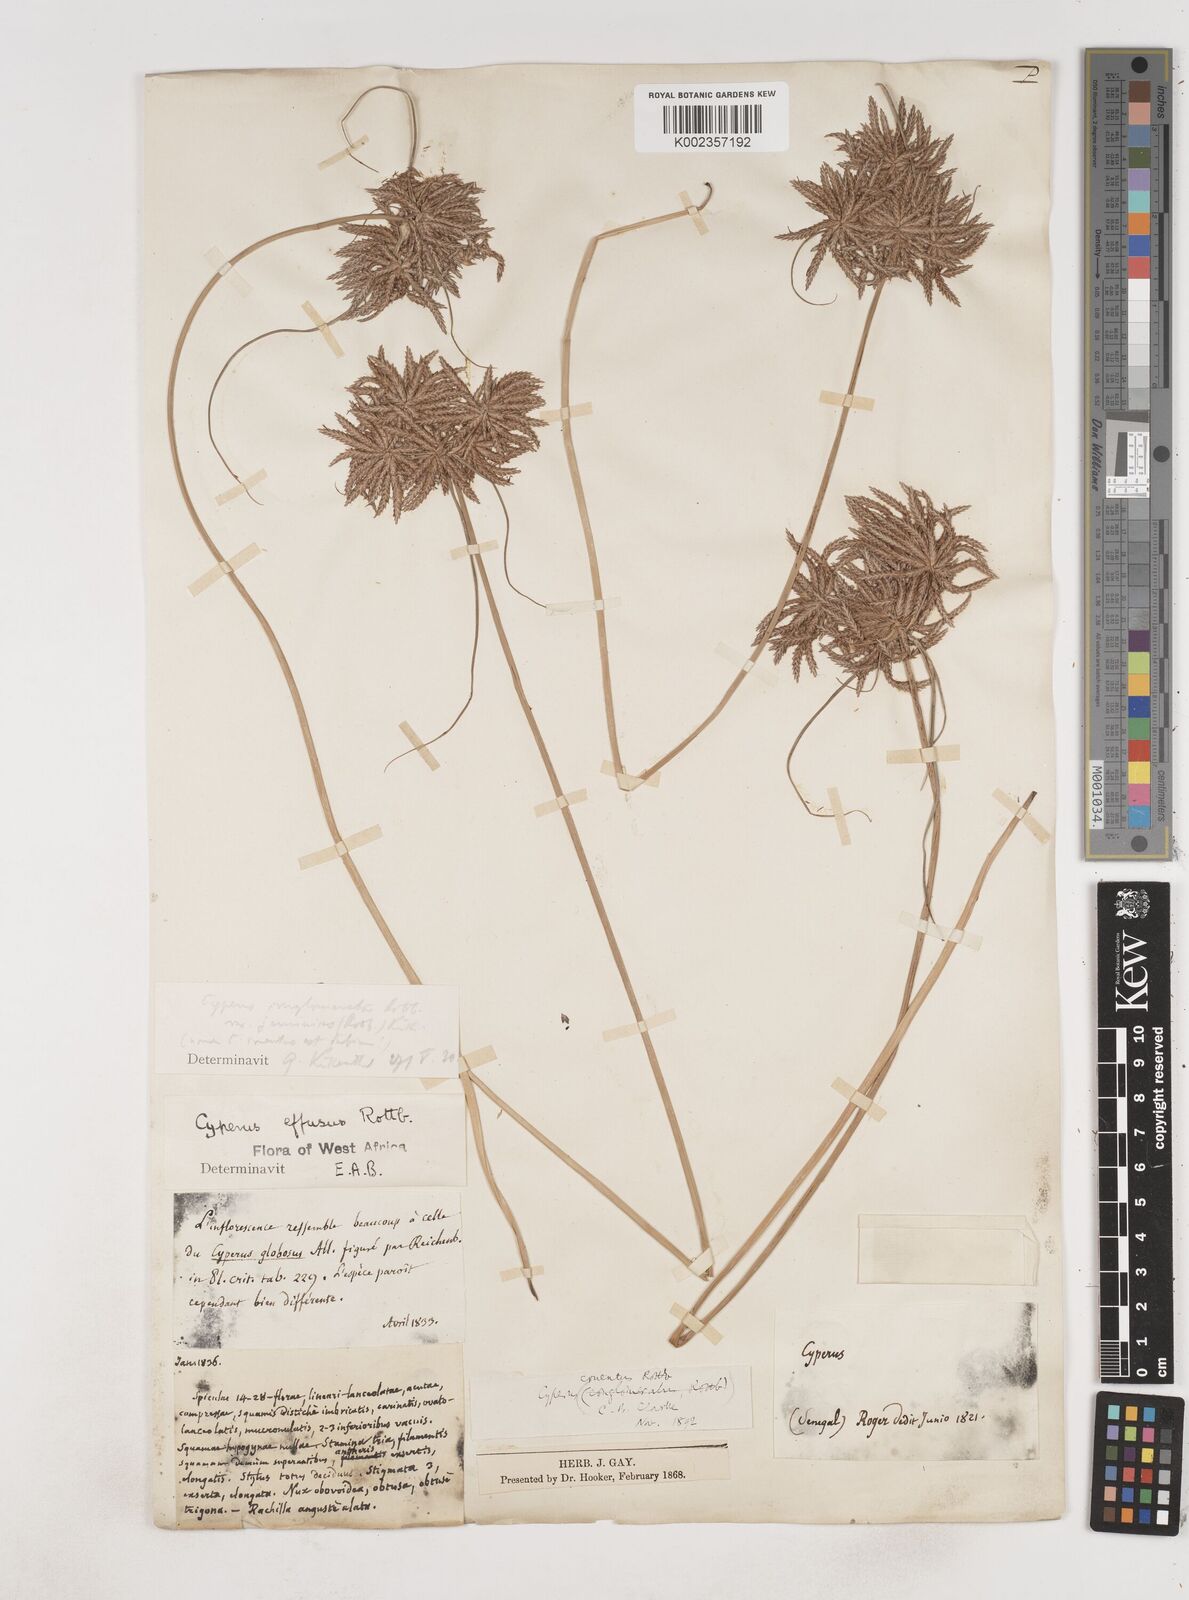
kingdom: Plantae
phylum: Tracheophyta
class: Liliopsida
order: Poales
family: Cyperaceae
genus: Cyperus
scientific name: Cyperus jeminicus
